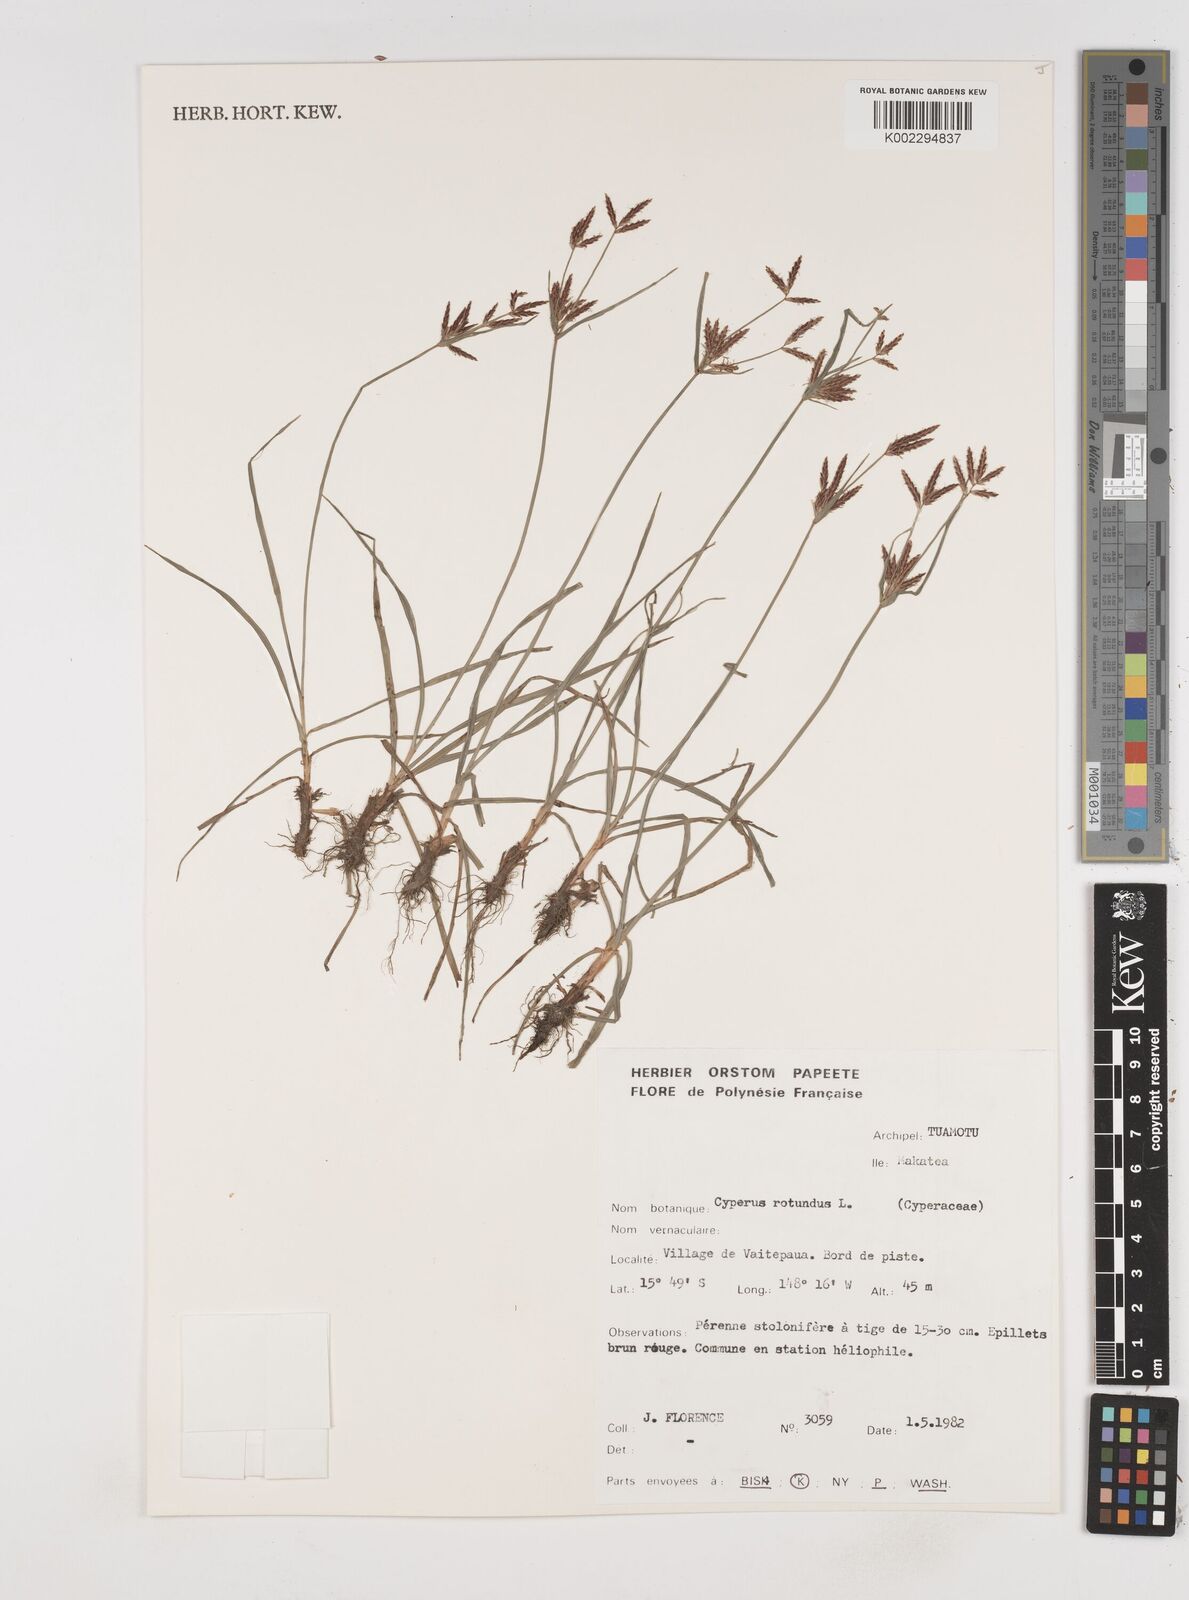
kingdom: Plantae
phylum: Tracheophyta
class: Liliopsida
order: Poales
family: Cyperaceae
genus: Cyperus
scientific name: Cyperus rotundus
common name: Nutgrass
